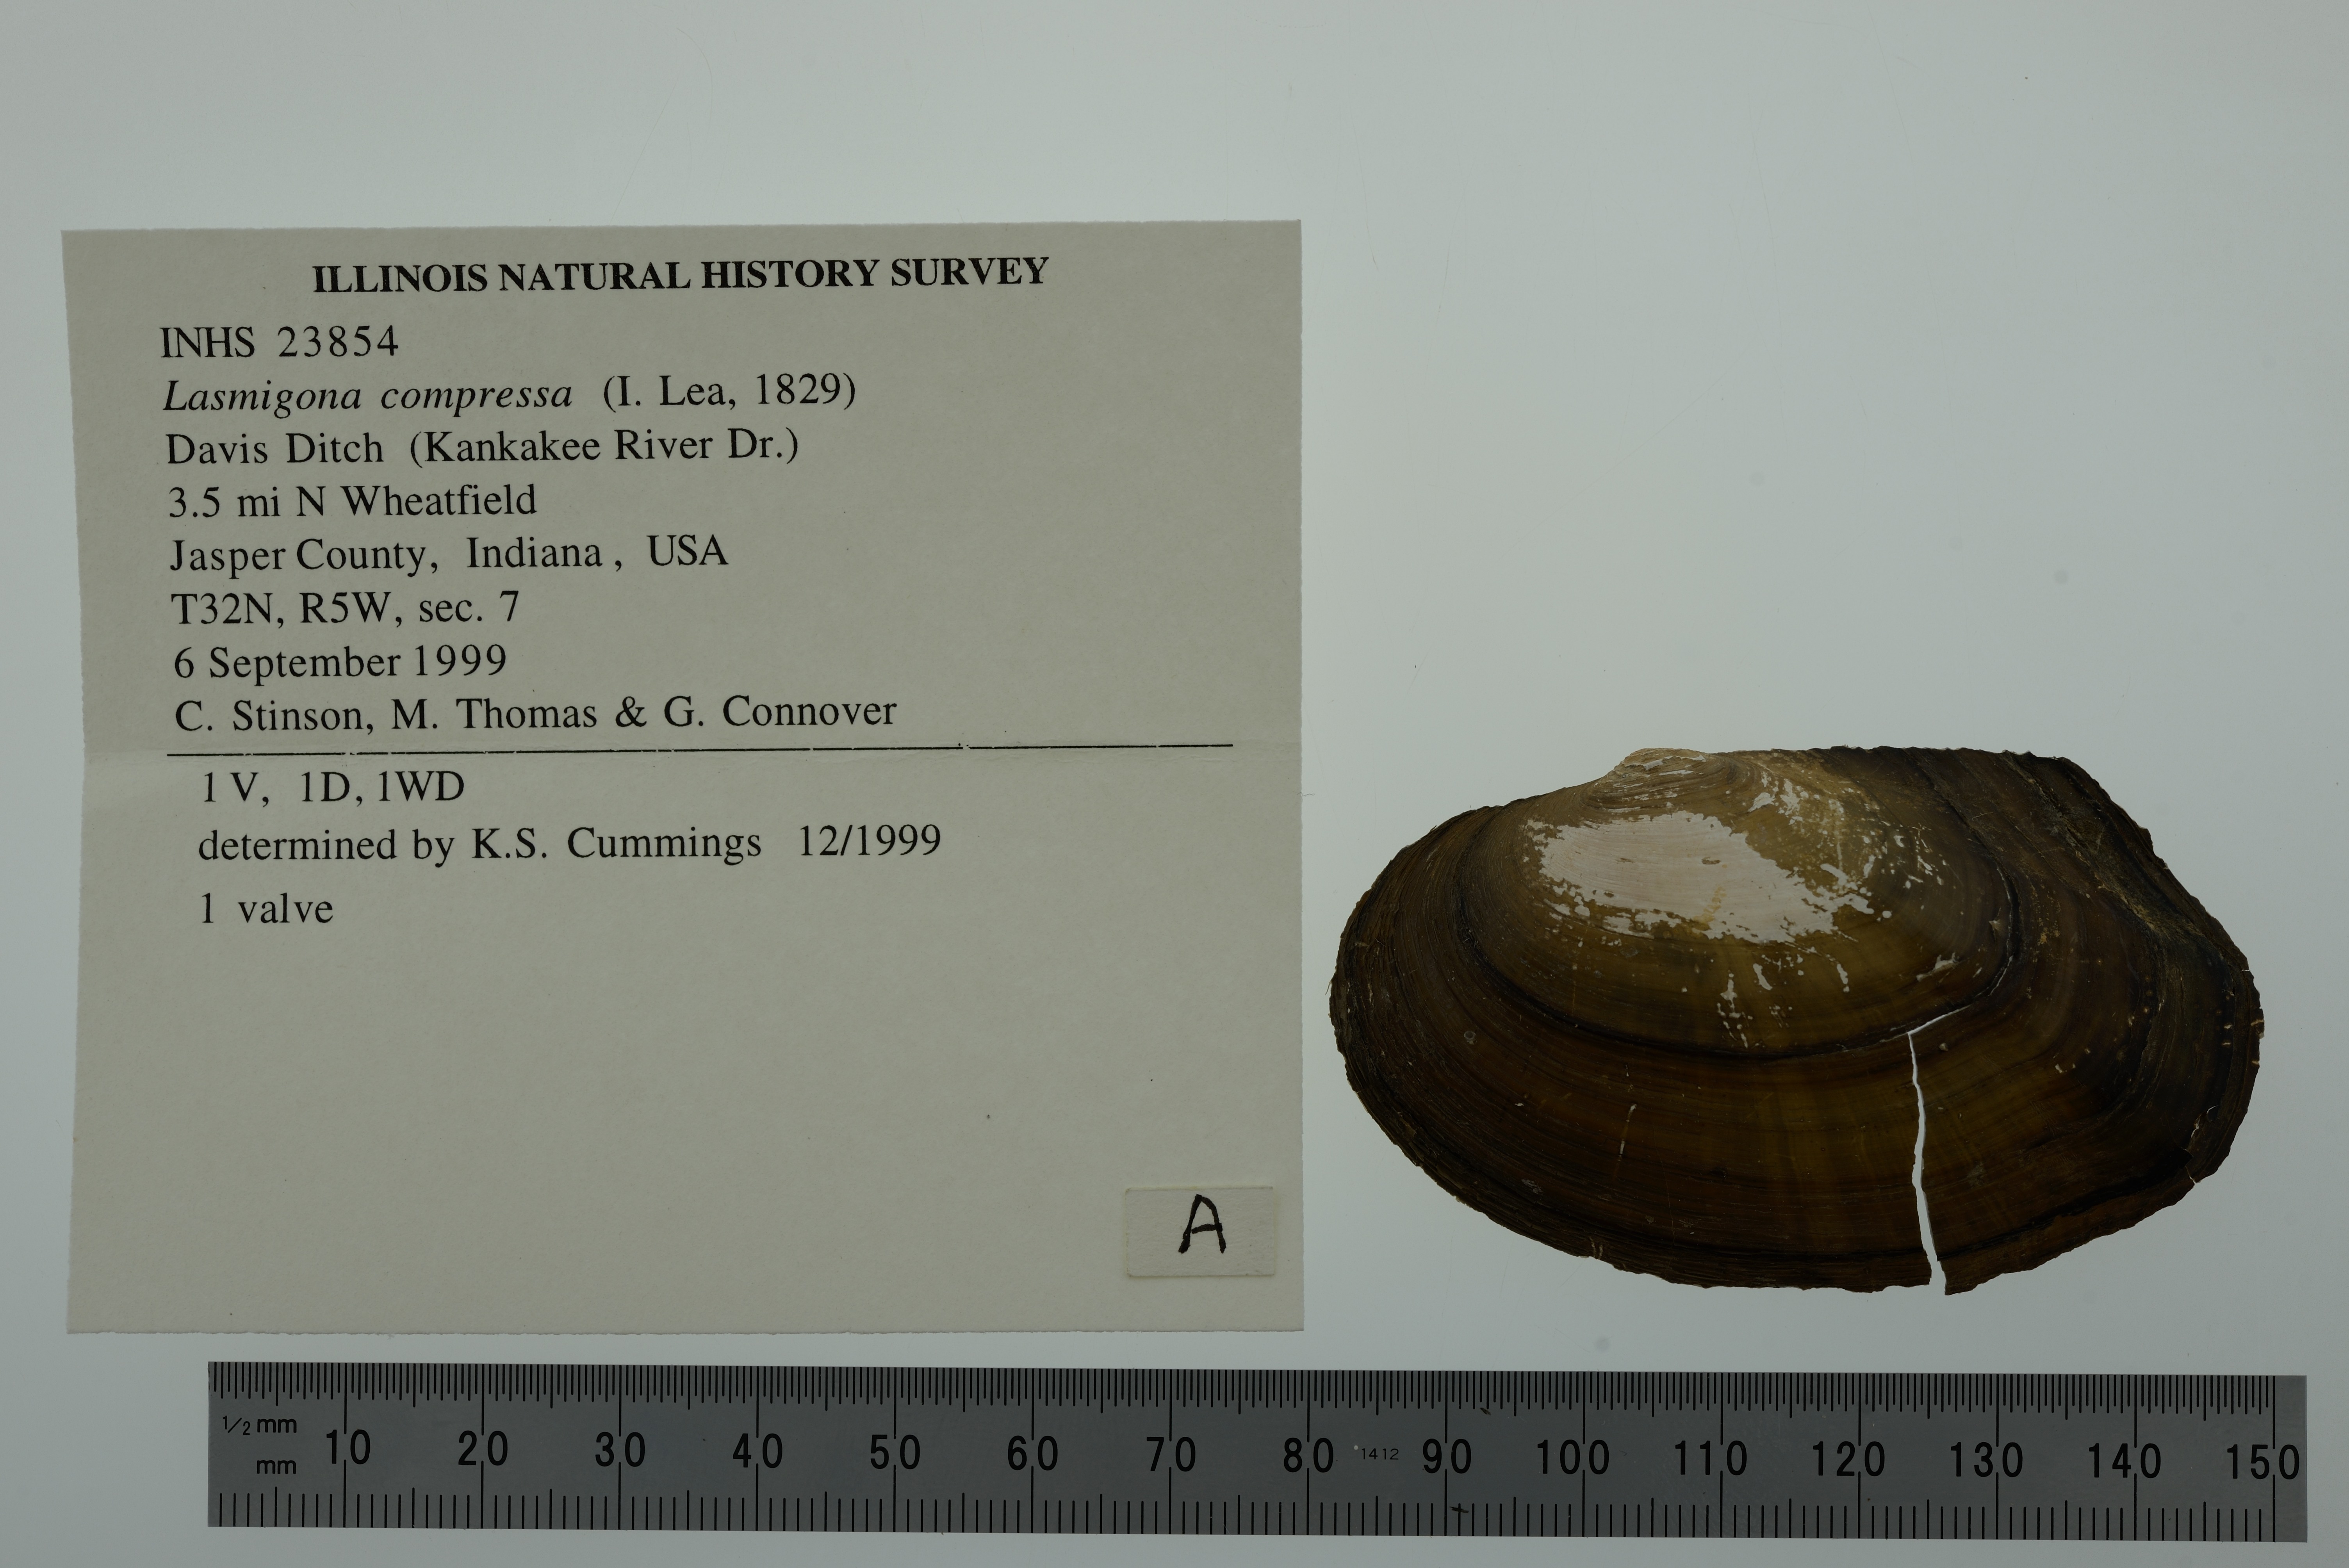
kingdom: Animalia
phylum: Mollusca
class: Bivalvia
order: Unionida
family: Unionidae
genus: Lasmigona
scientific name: Lasmigona compressa
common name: Creek heelsplitter
